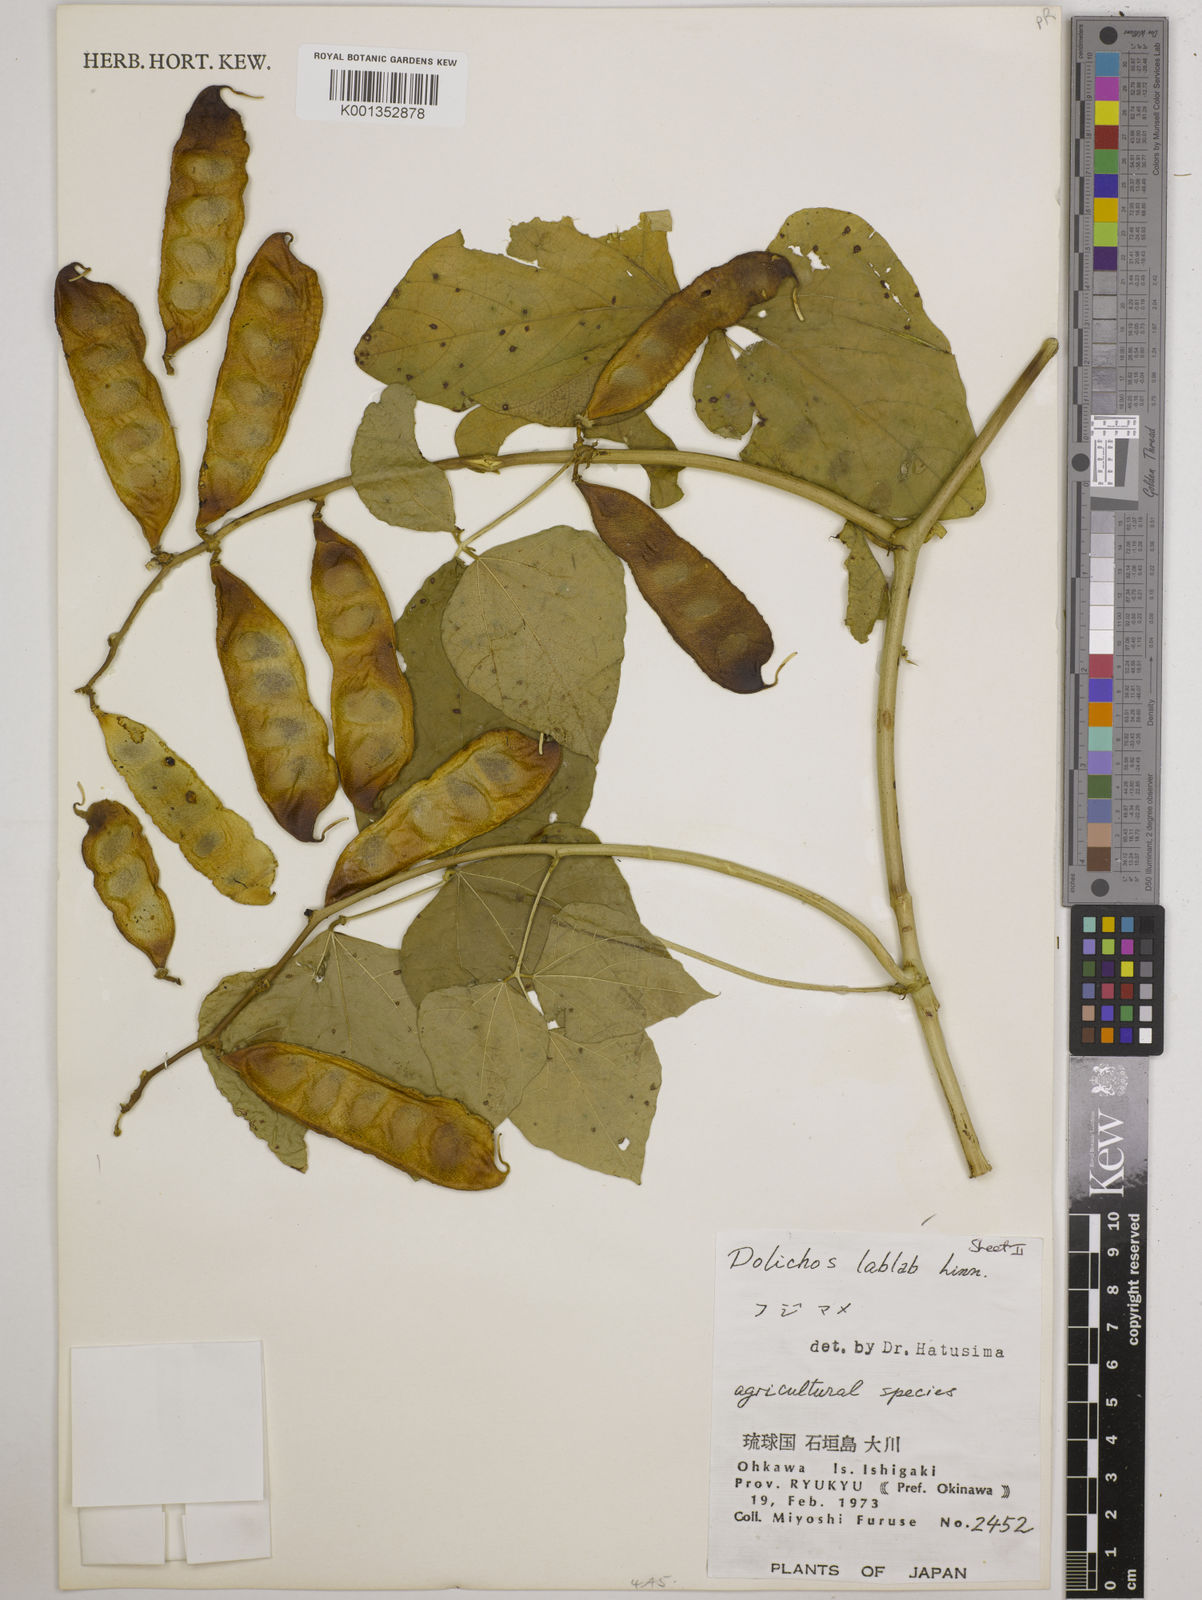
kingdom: Plantae
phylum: Tracheophyta
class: Magnoliopsida
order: Fabales
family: Fabaceae
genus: Lablab
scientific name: Lablab purpureus
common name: Lablab-bean
